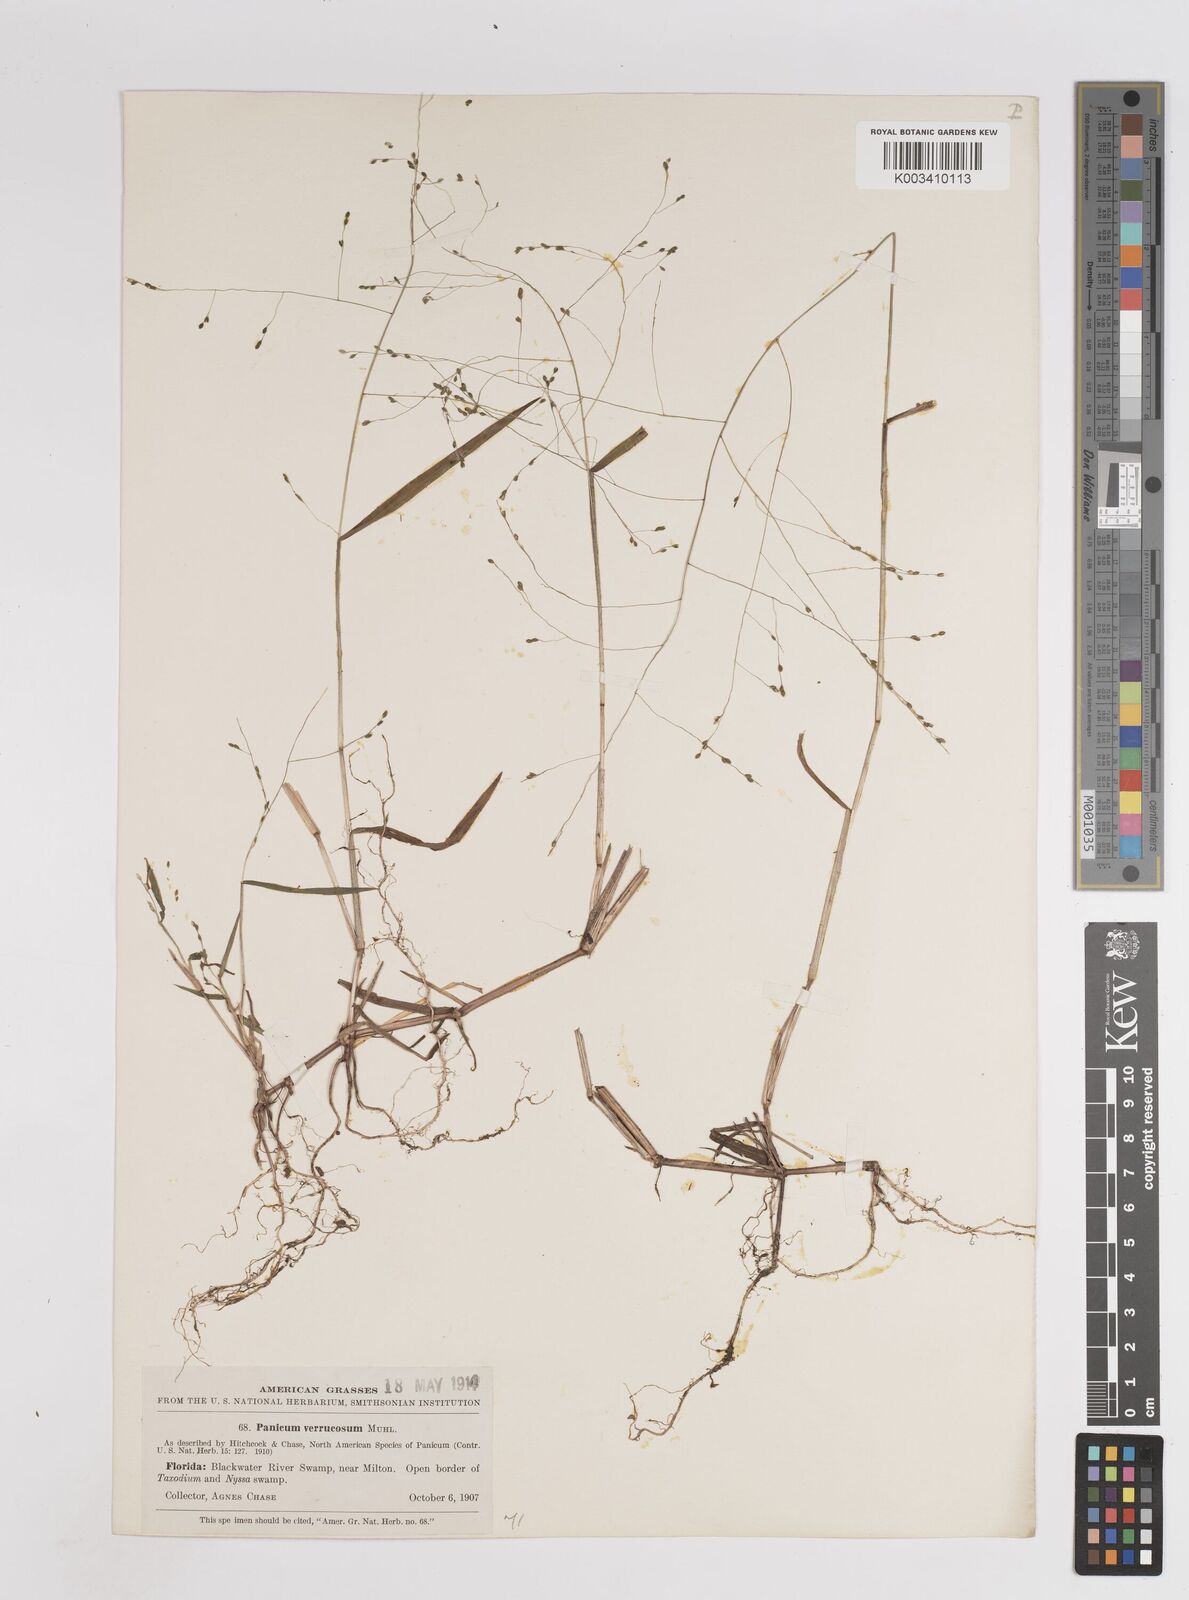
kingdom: Plantae
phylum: Tracheophyta
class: Liliopsida
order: Poales
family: Poaceae
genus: Kellochloa
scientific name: Kellochloa verrucosa
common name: Warty panic grass
